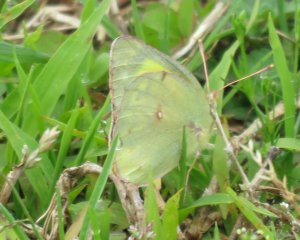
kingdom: Animalia
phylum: Arthropoda
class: Insecta
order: Lepidoptera
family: Pieridae
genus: Colias
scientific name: Colias philodice
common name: Clouded Sulphur
